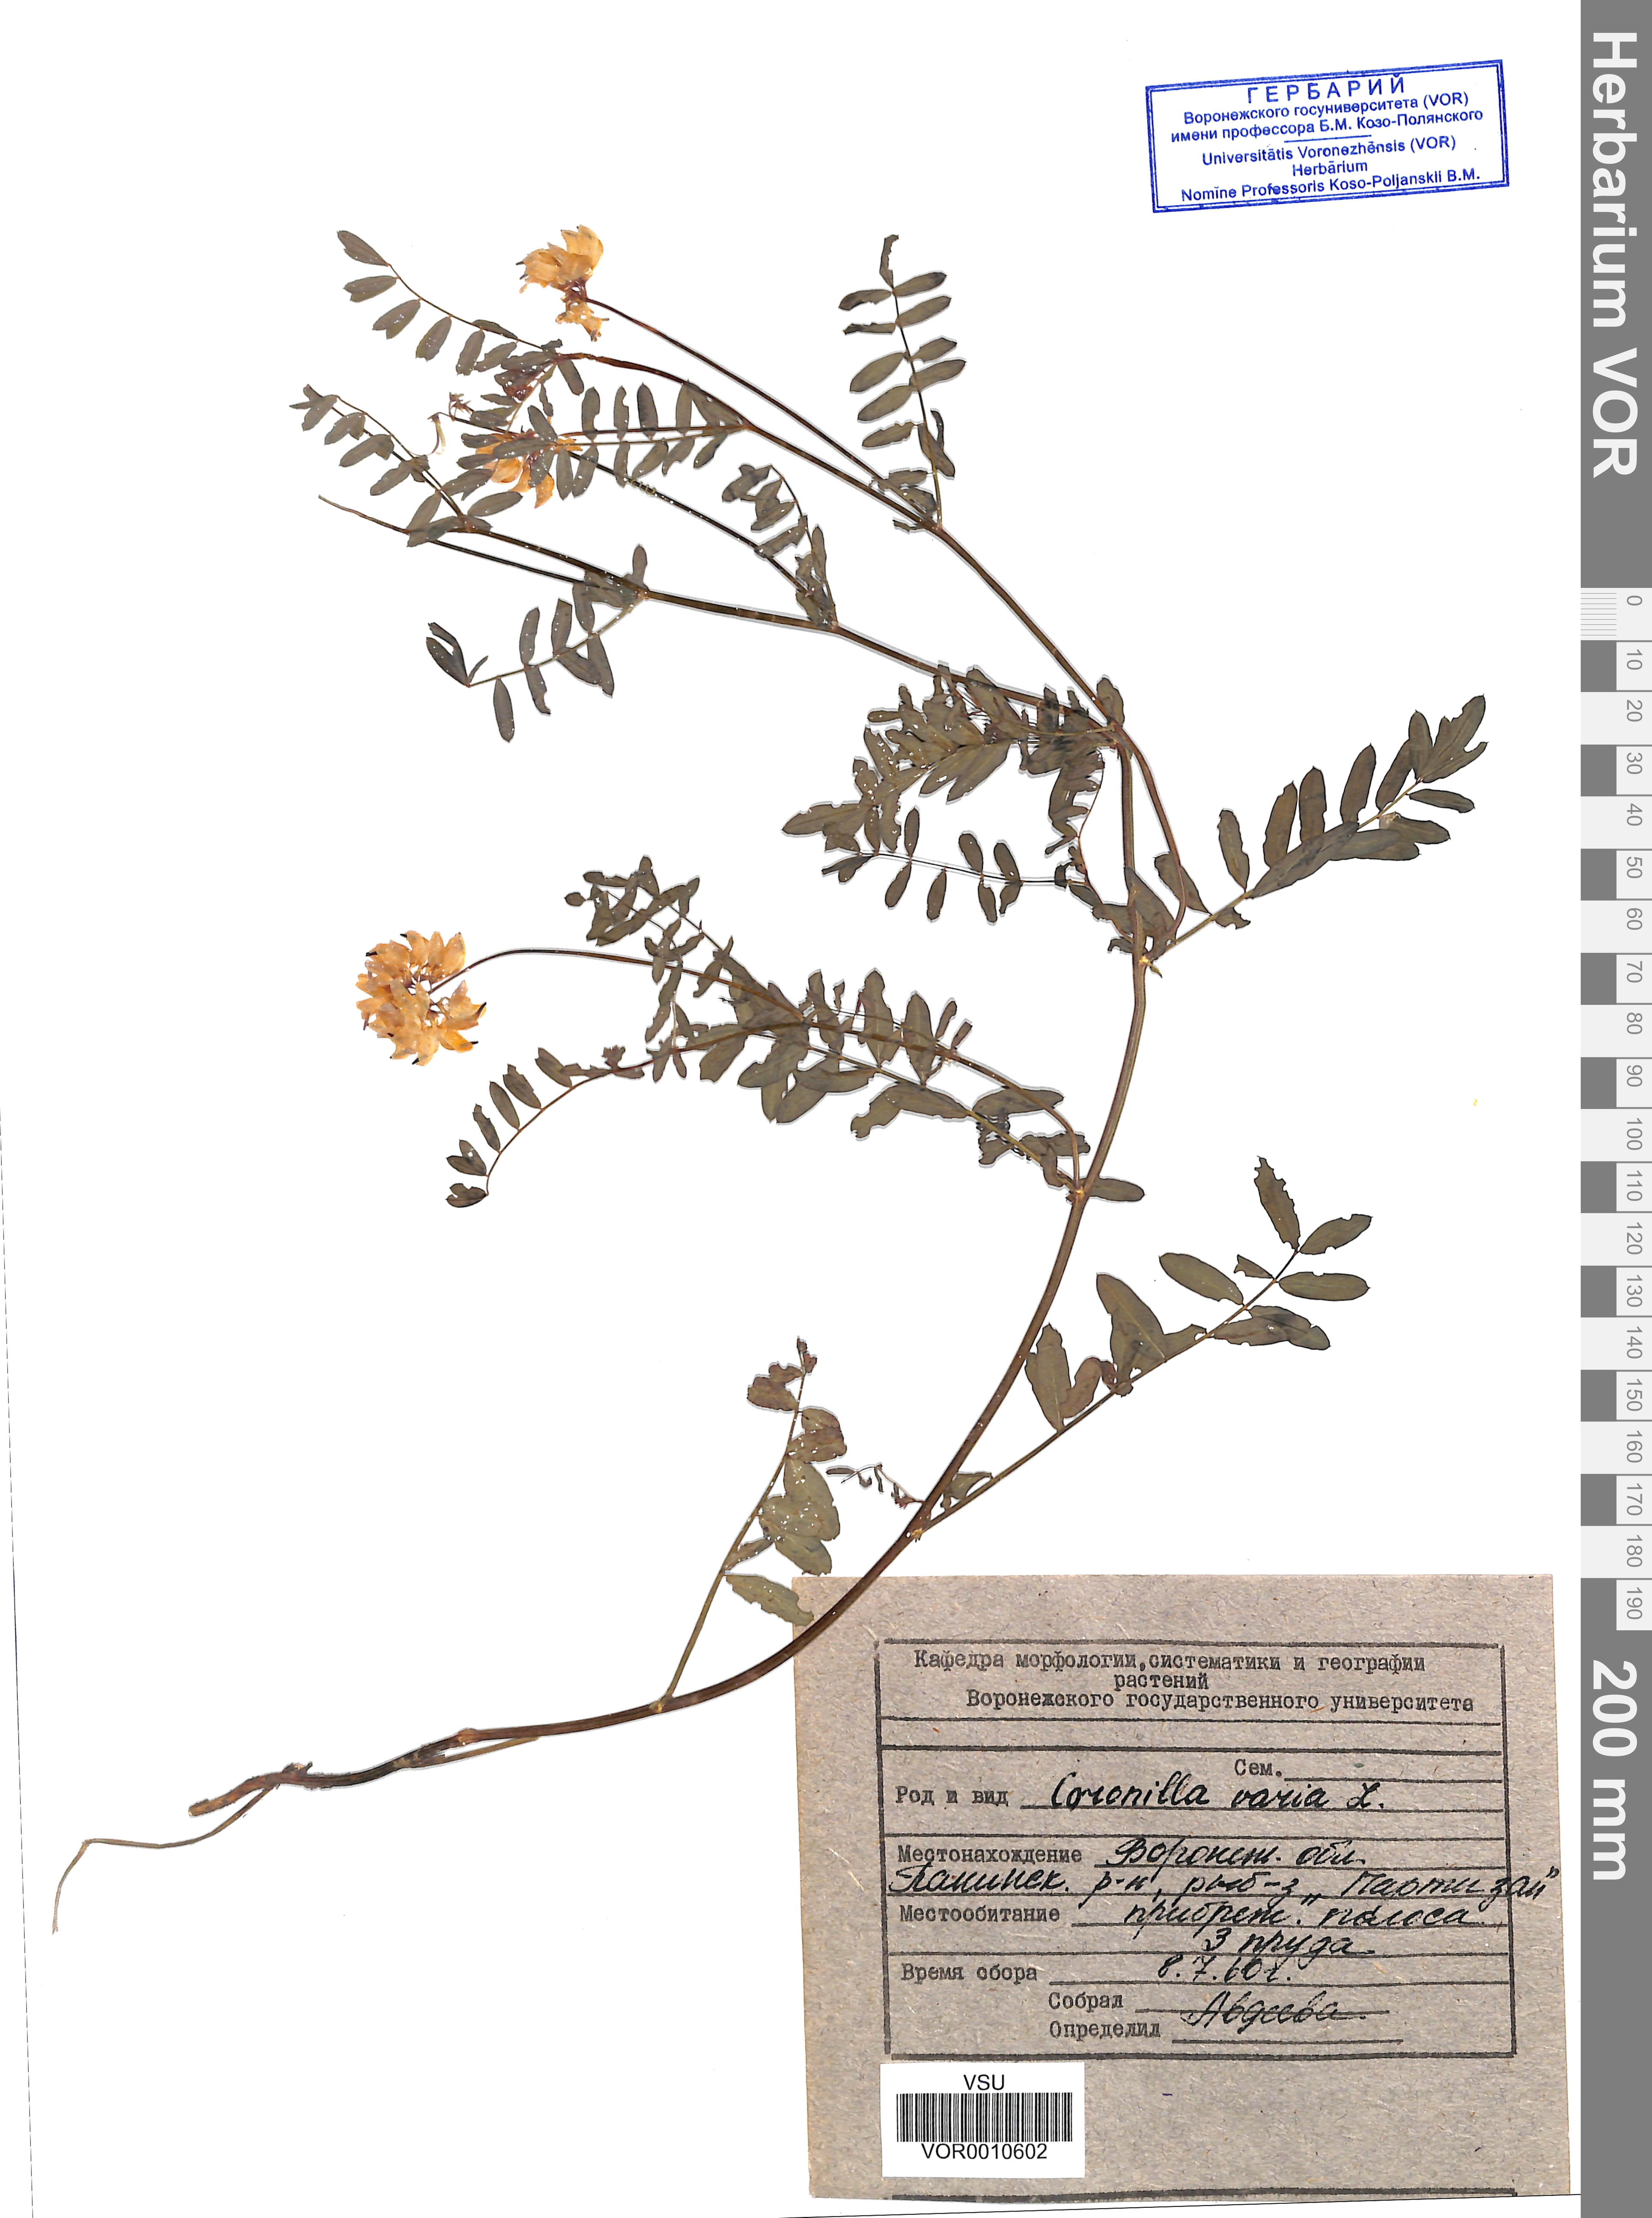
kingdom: Plantae
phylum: Tracheophyta
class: Magnoliopsida
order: Fabales
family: Fabaceae
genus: Coronilla
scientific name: Coronilla varia
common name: Crownvetch
